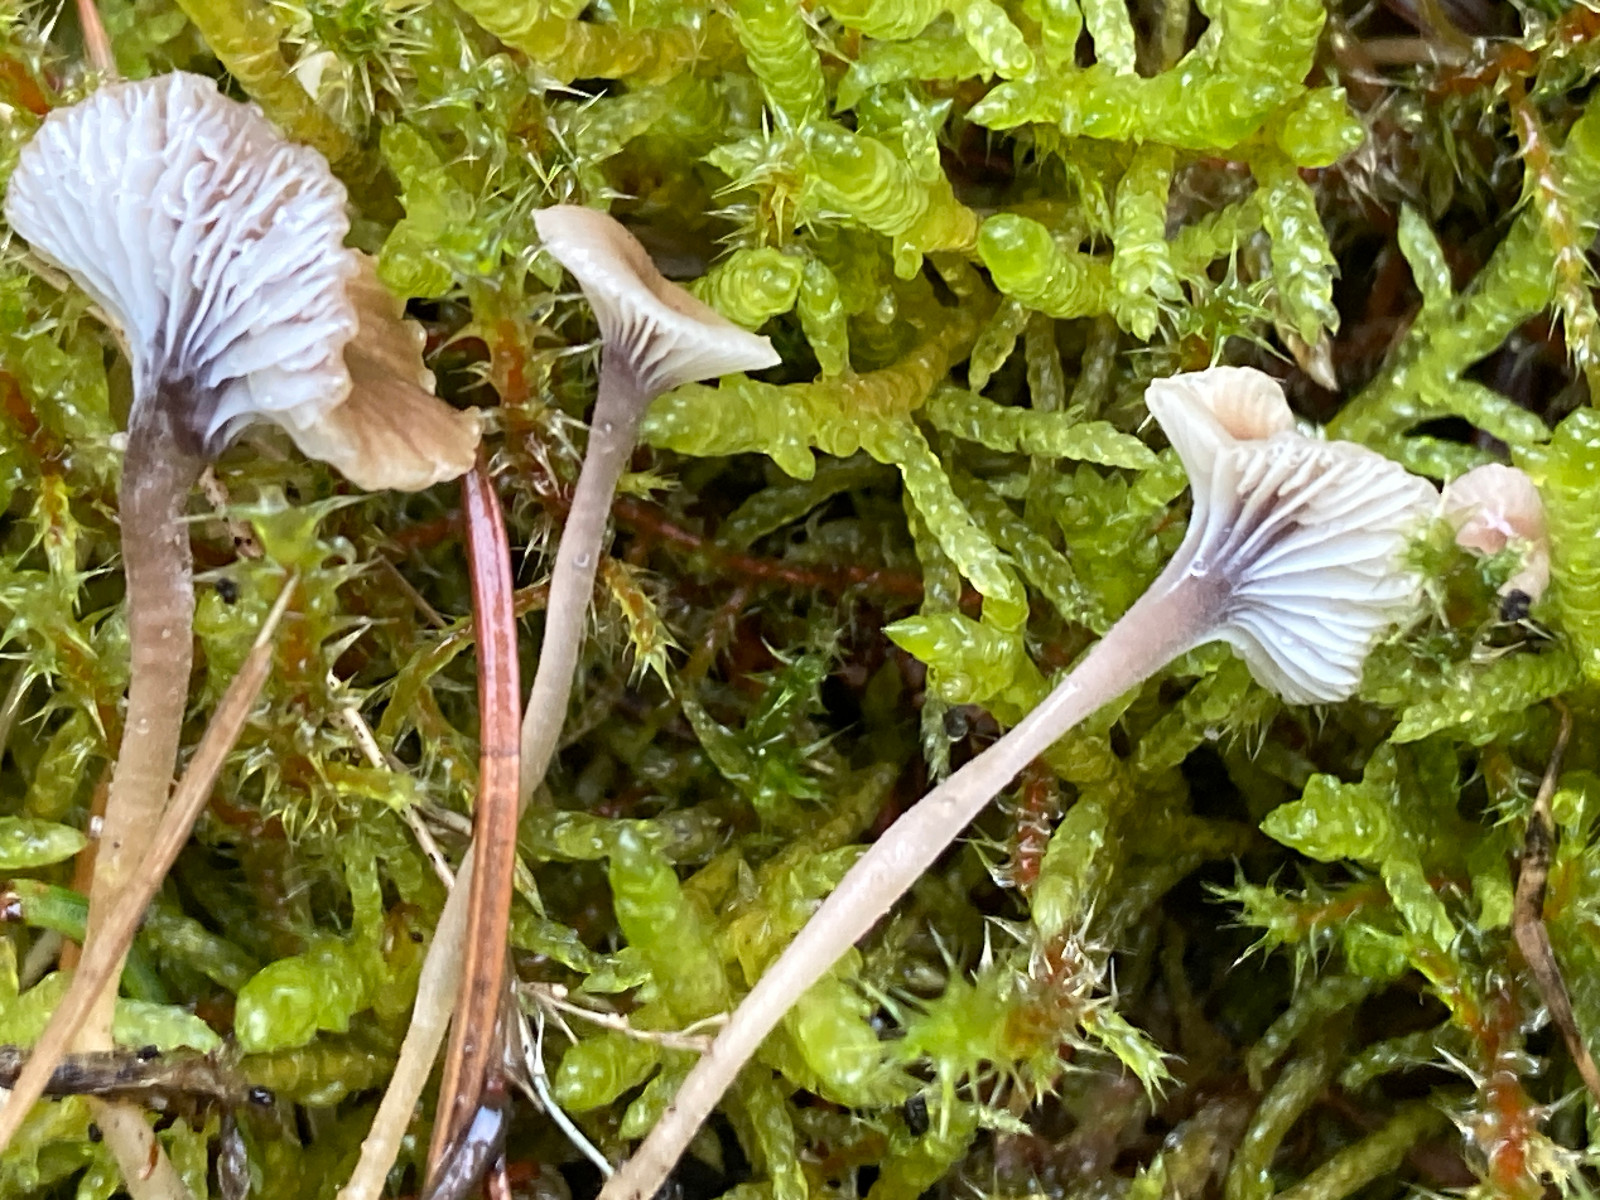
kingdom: Fungi
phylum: Basidiomycota
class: Agaricomycetes
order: Hymenochaetales
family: Rickenellaceae
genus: Rickenella
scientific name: Rickenella swartzii
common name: finstokket mosnavlehat
